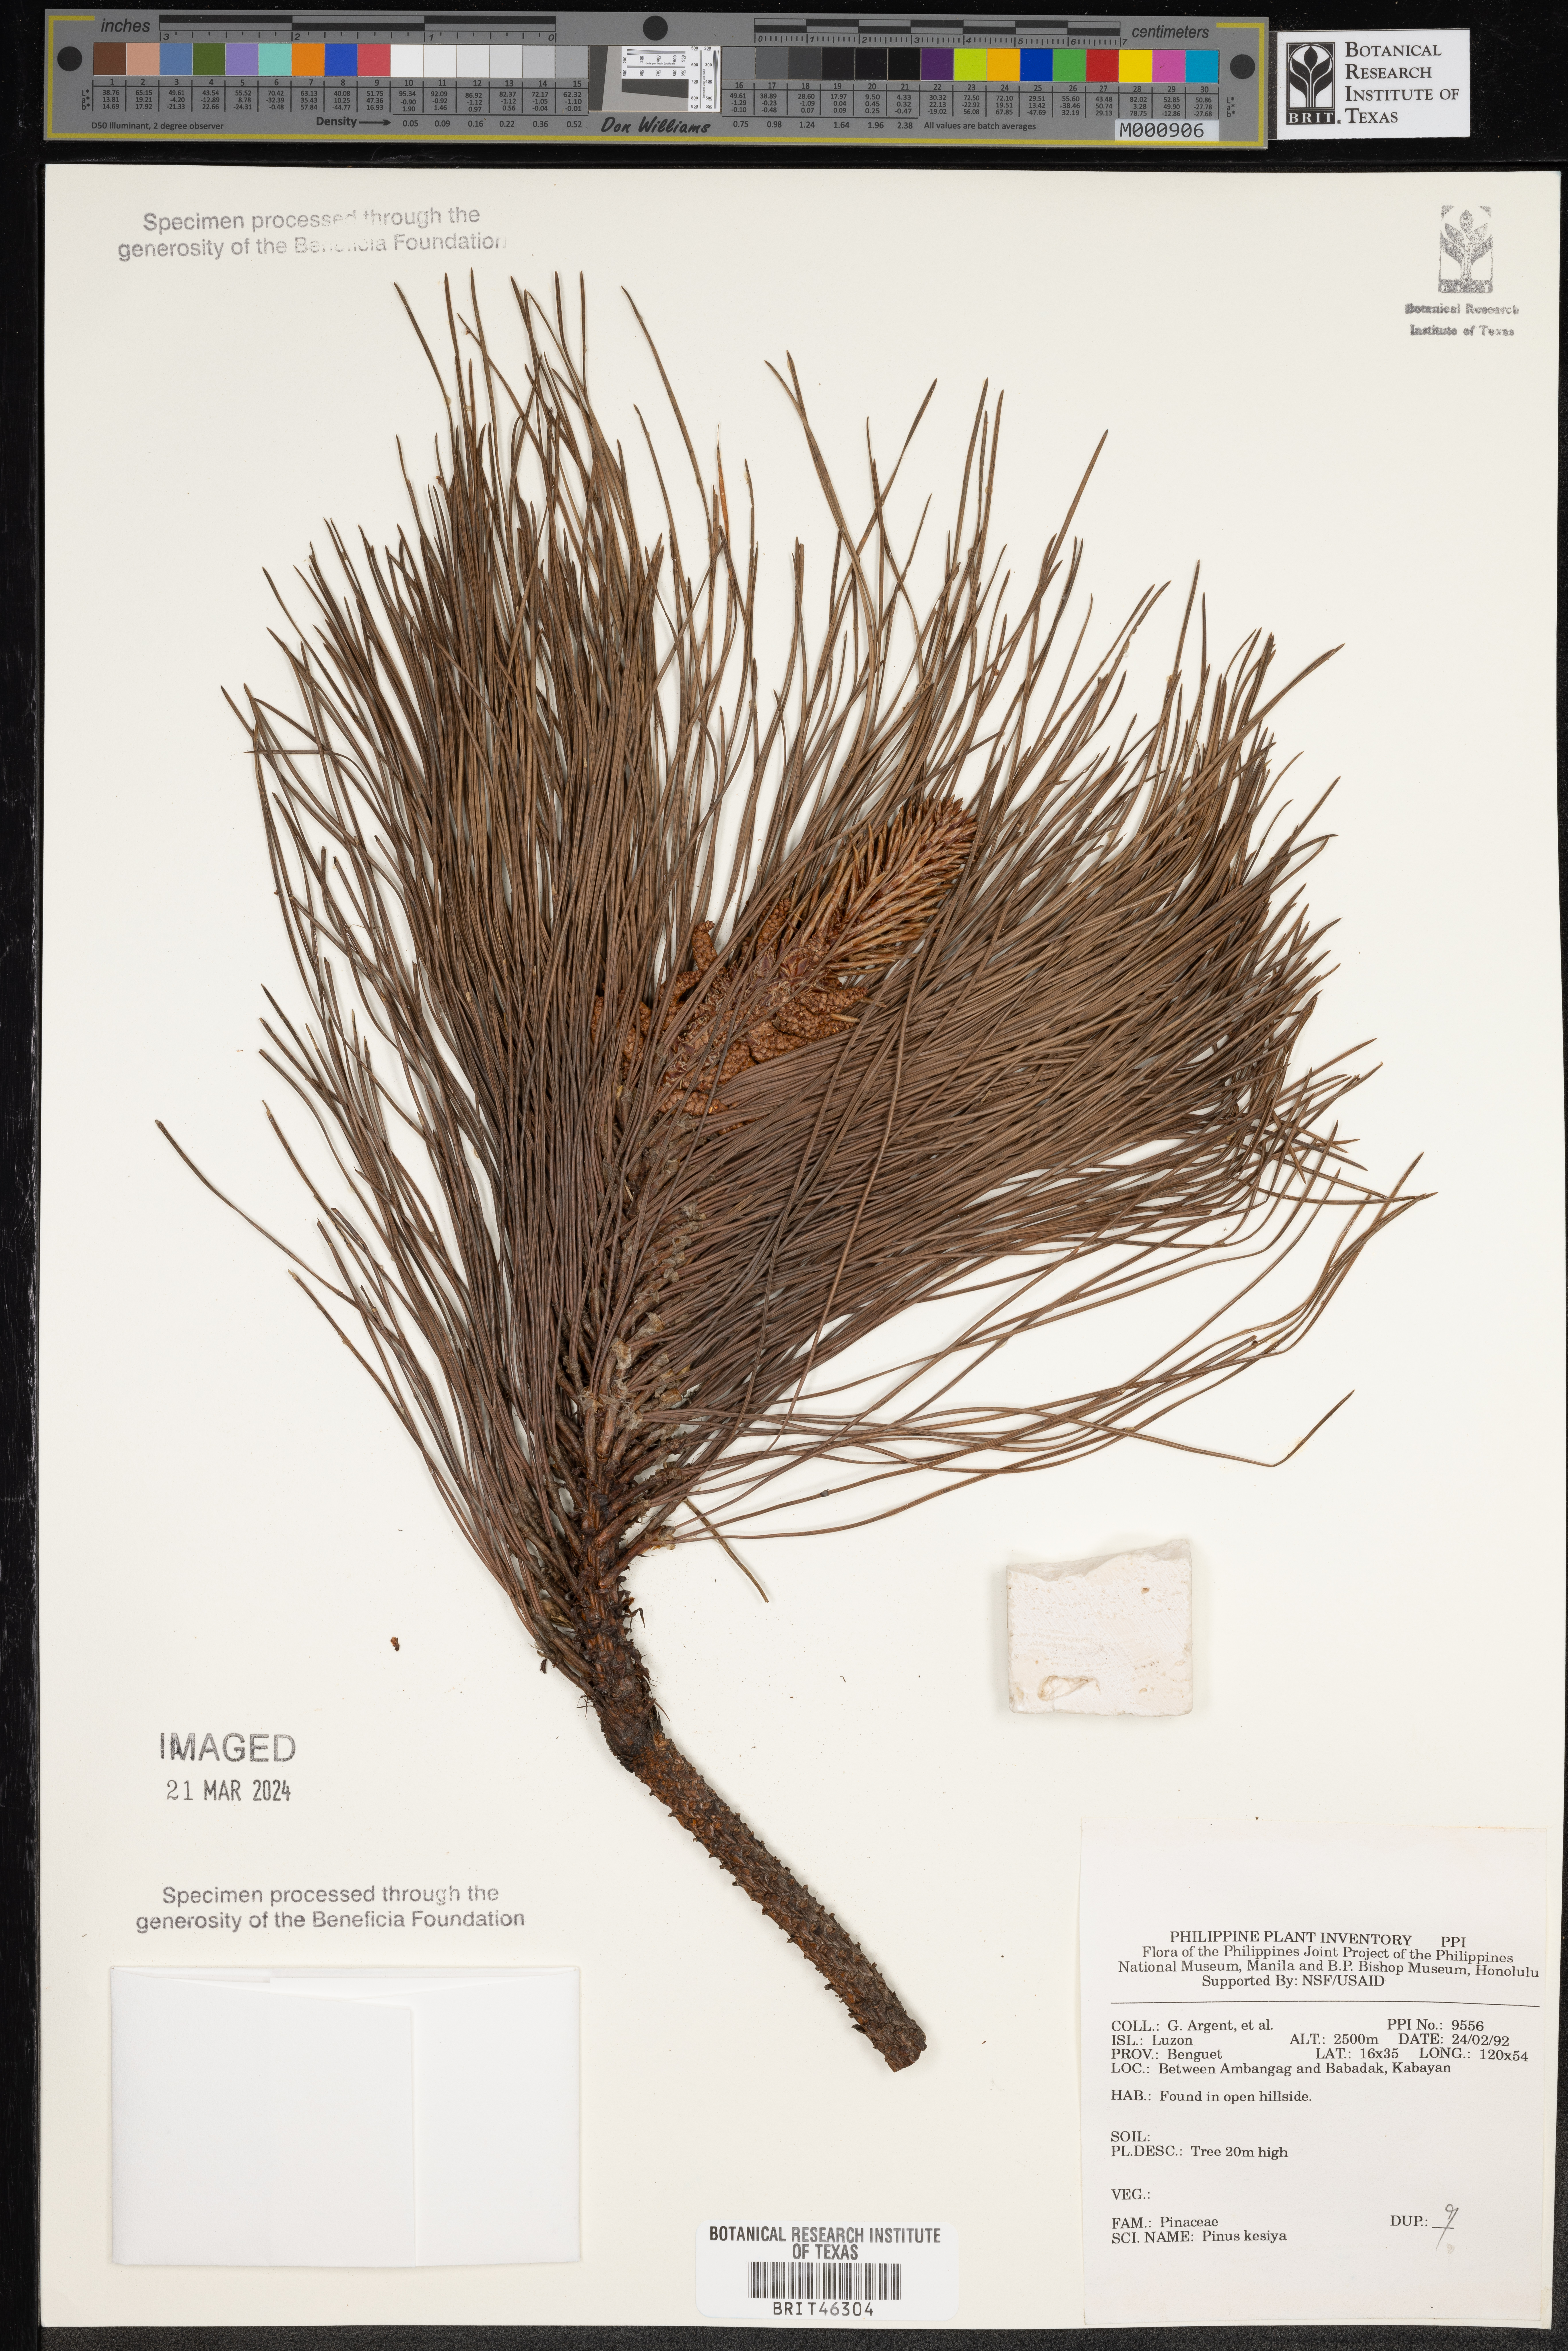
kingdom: Plantae
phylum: Tracheophyta
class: Pinopsida
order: Pinales
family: Pinaceae
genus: Pinus
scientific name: Pinus kesiya
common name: Benguet pine
